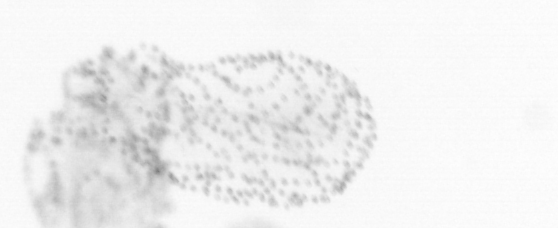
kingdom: Chromista
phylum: Ochrophyta
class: Bacillariophyceae
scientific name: Bacillariophyceae
